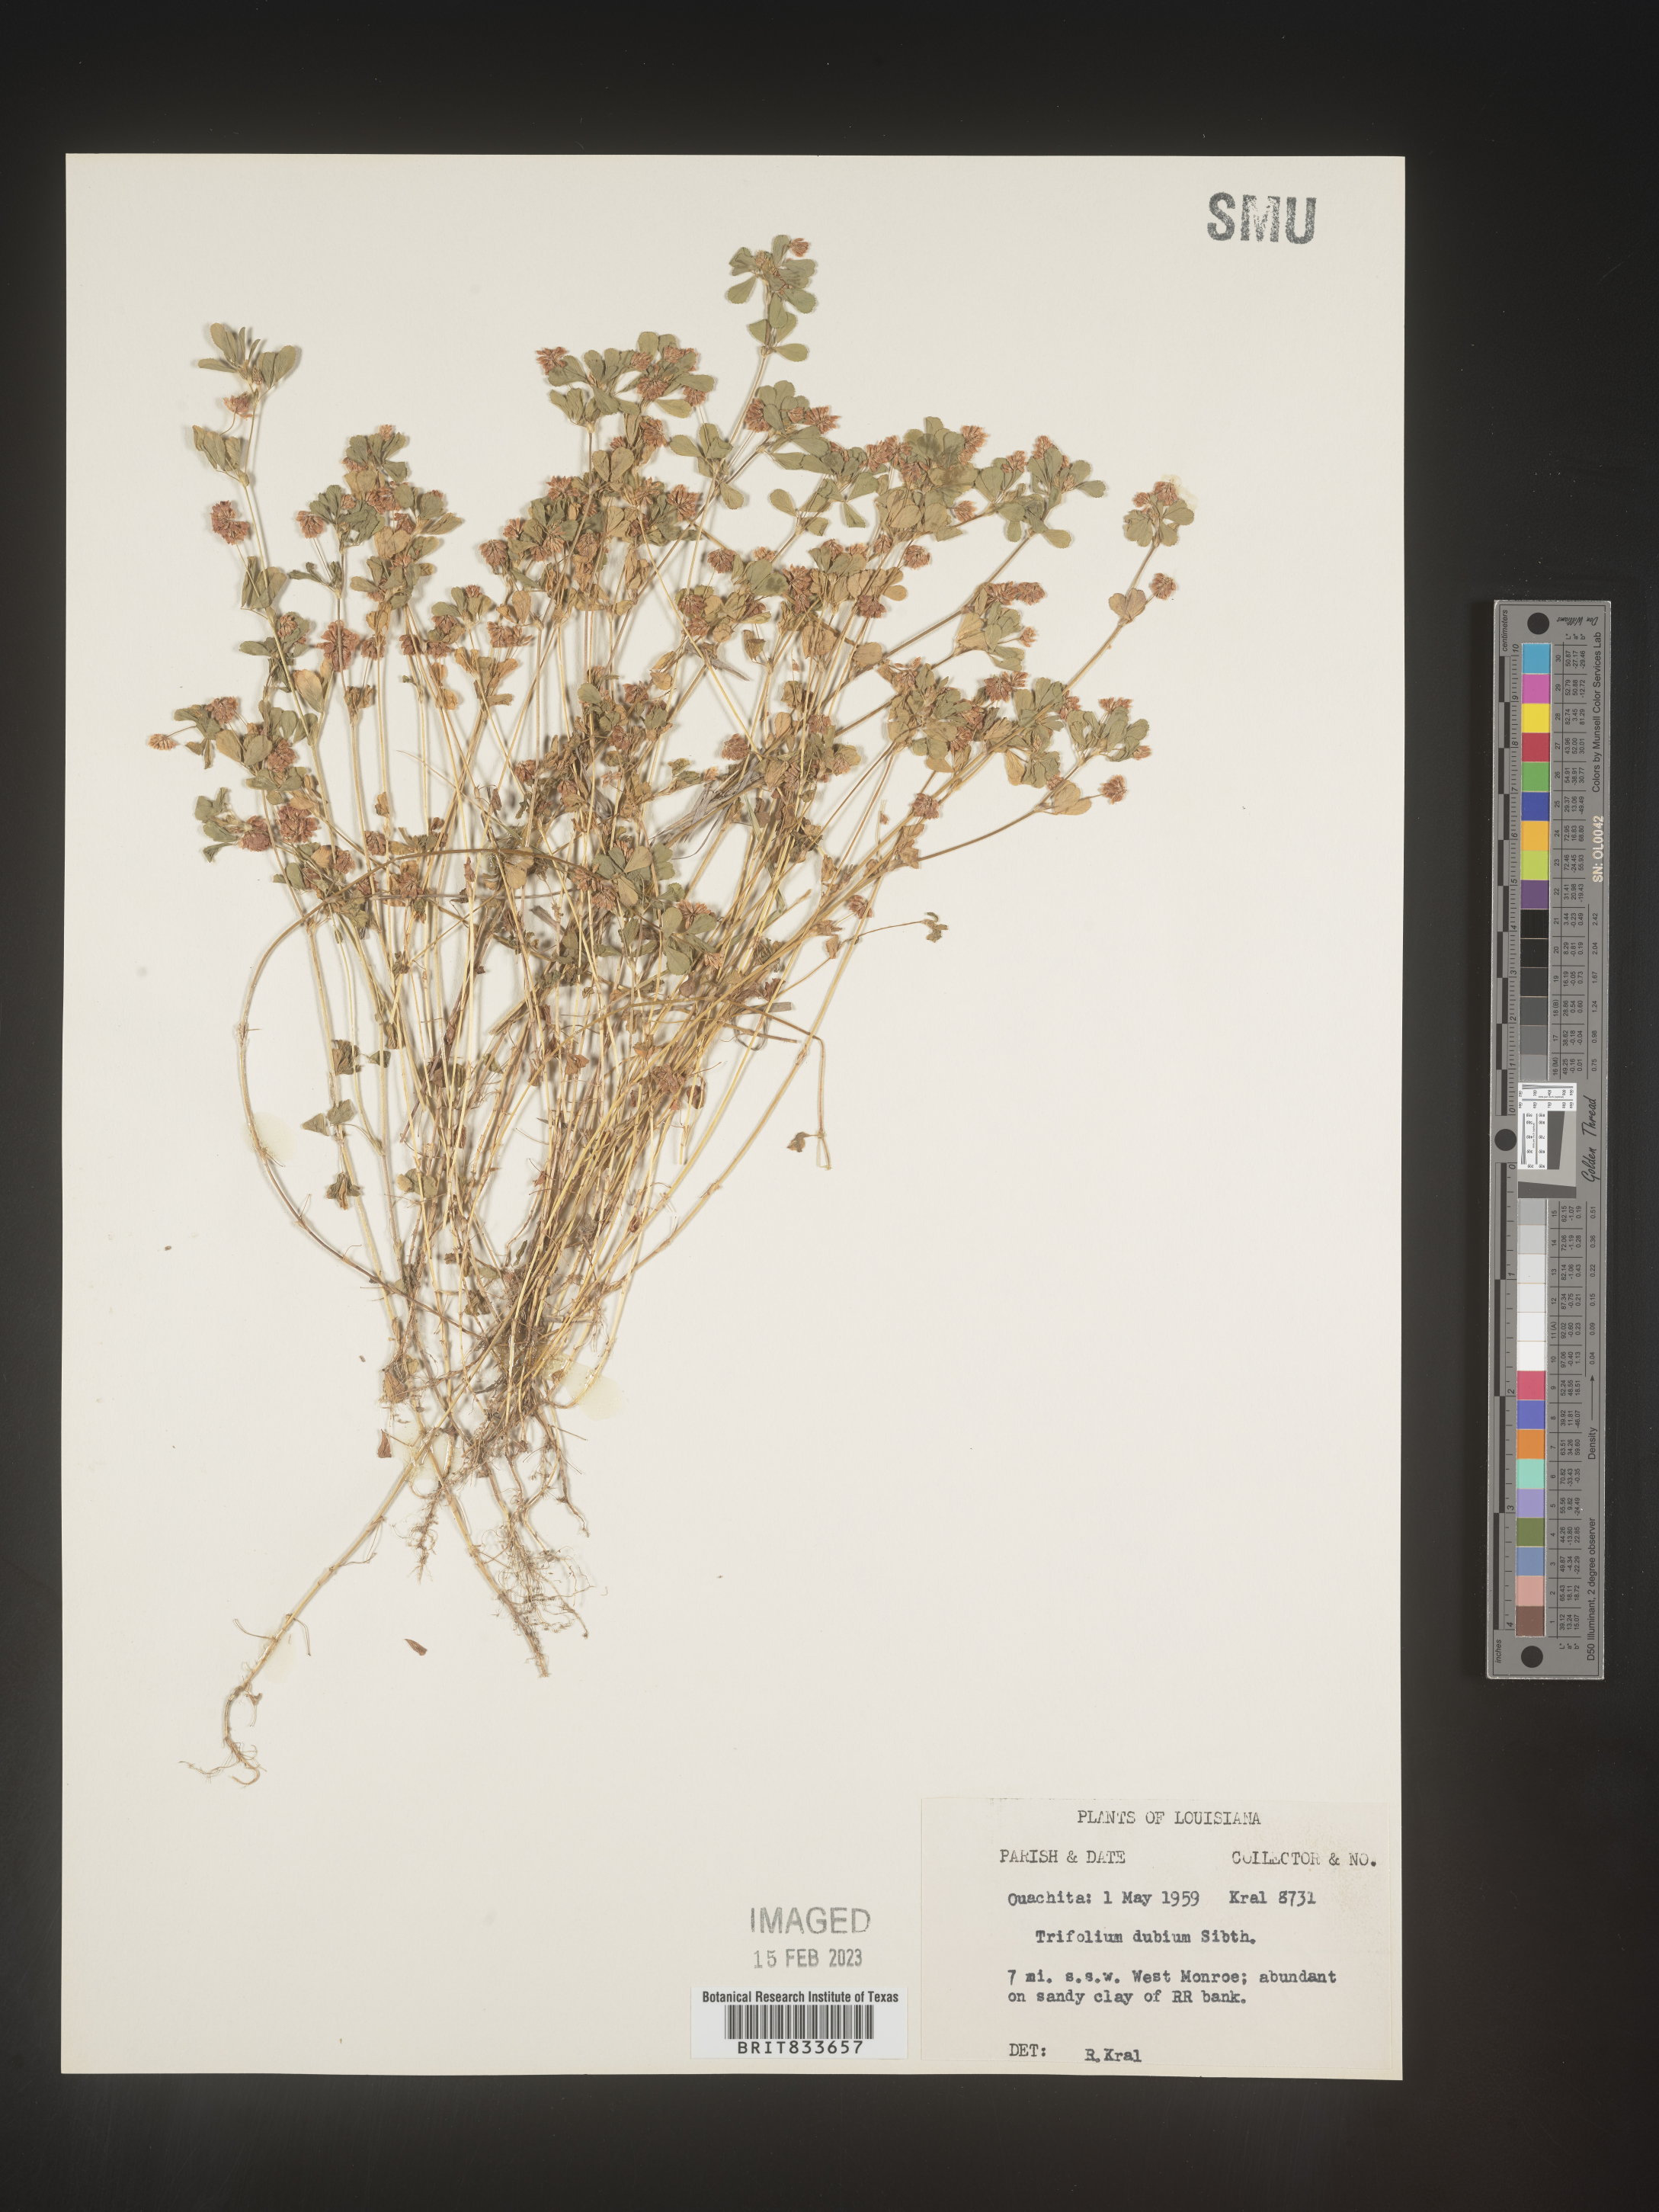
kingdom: Plantae
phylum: Tracheophyta
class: Magnoliopsida
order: Fabales
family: Fabaceae
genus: Trifolium
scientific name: Trifolium dubium
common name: Suckling clover
